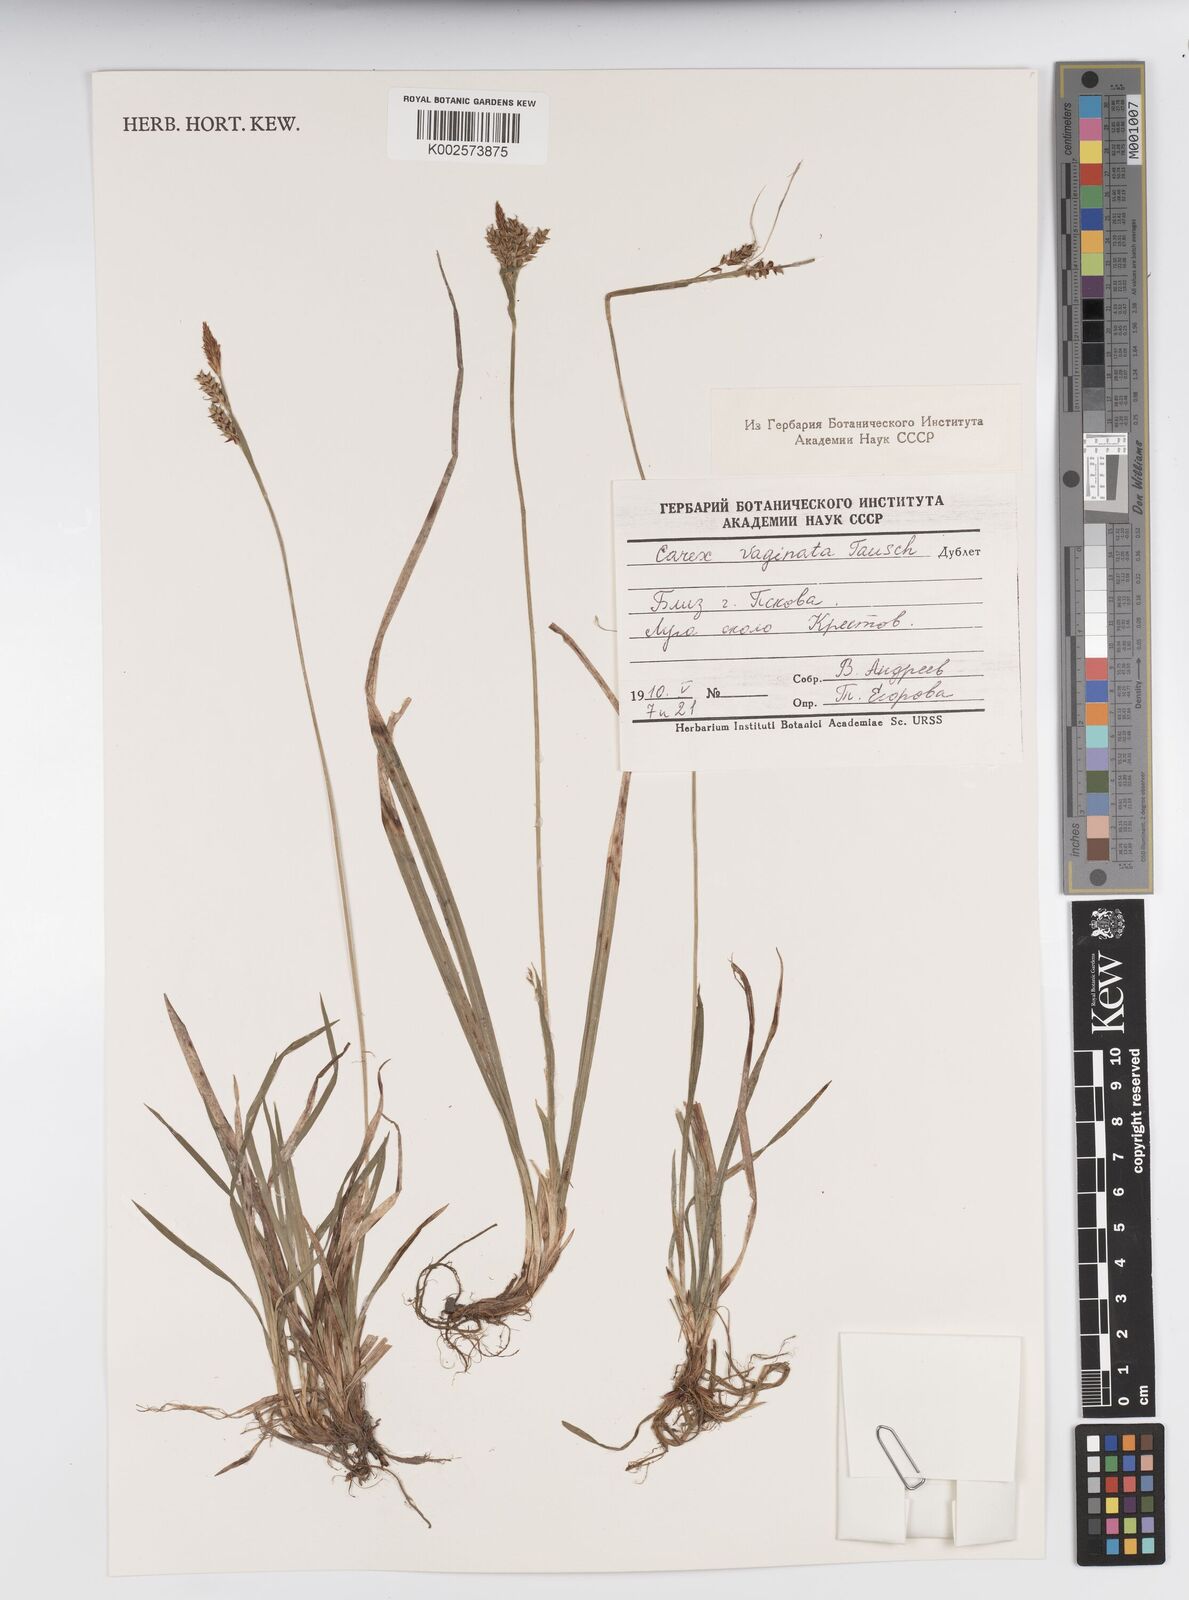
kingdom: Plantae
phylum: Tracheophyta
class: Liliopsida
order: Poales
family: Cyperaceae
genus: Carex
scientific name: Carex vaginata
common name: Sheathed sedge
